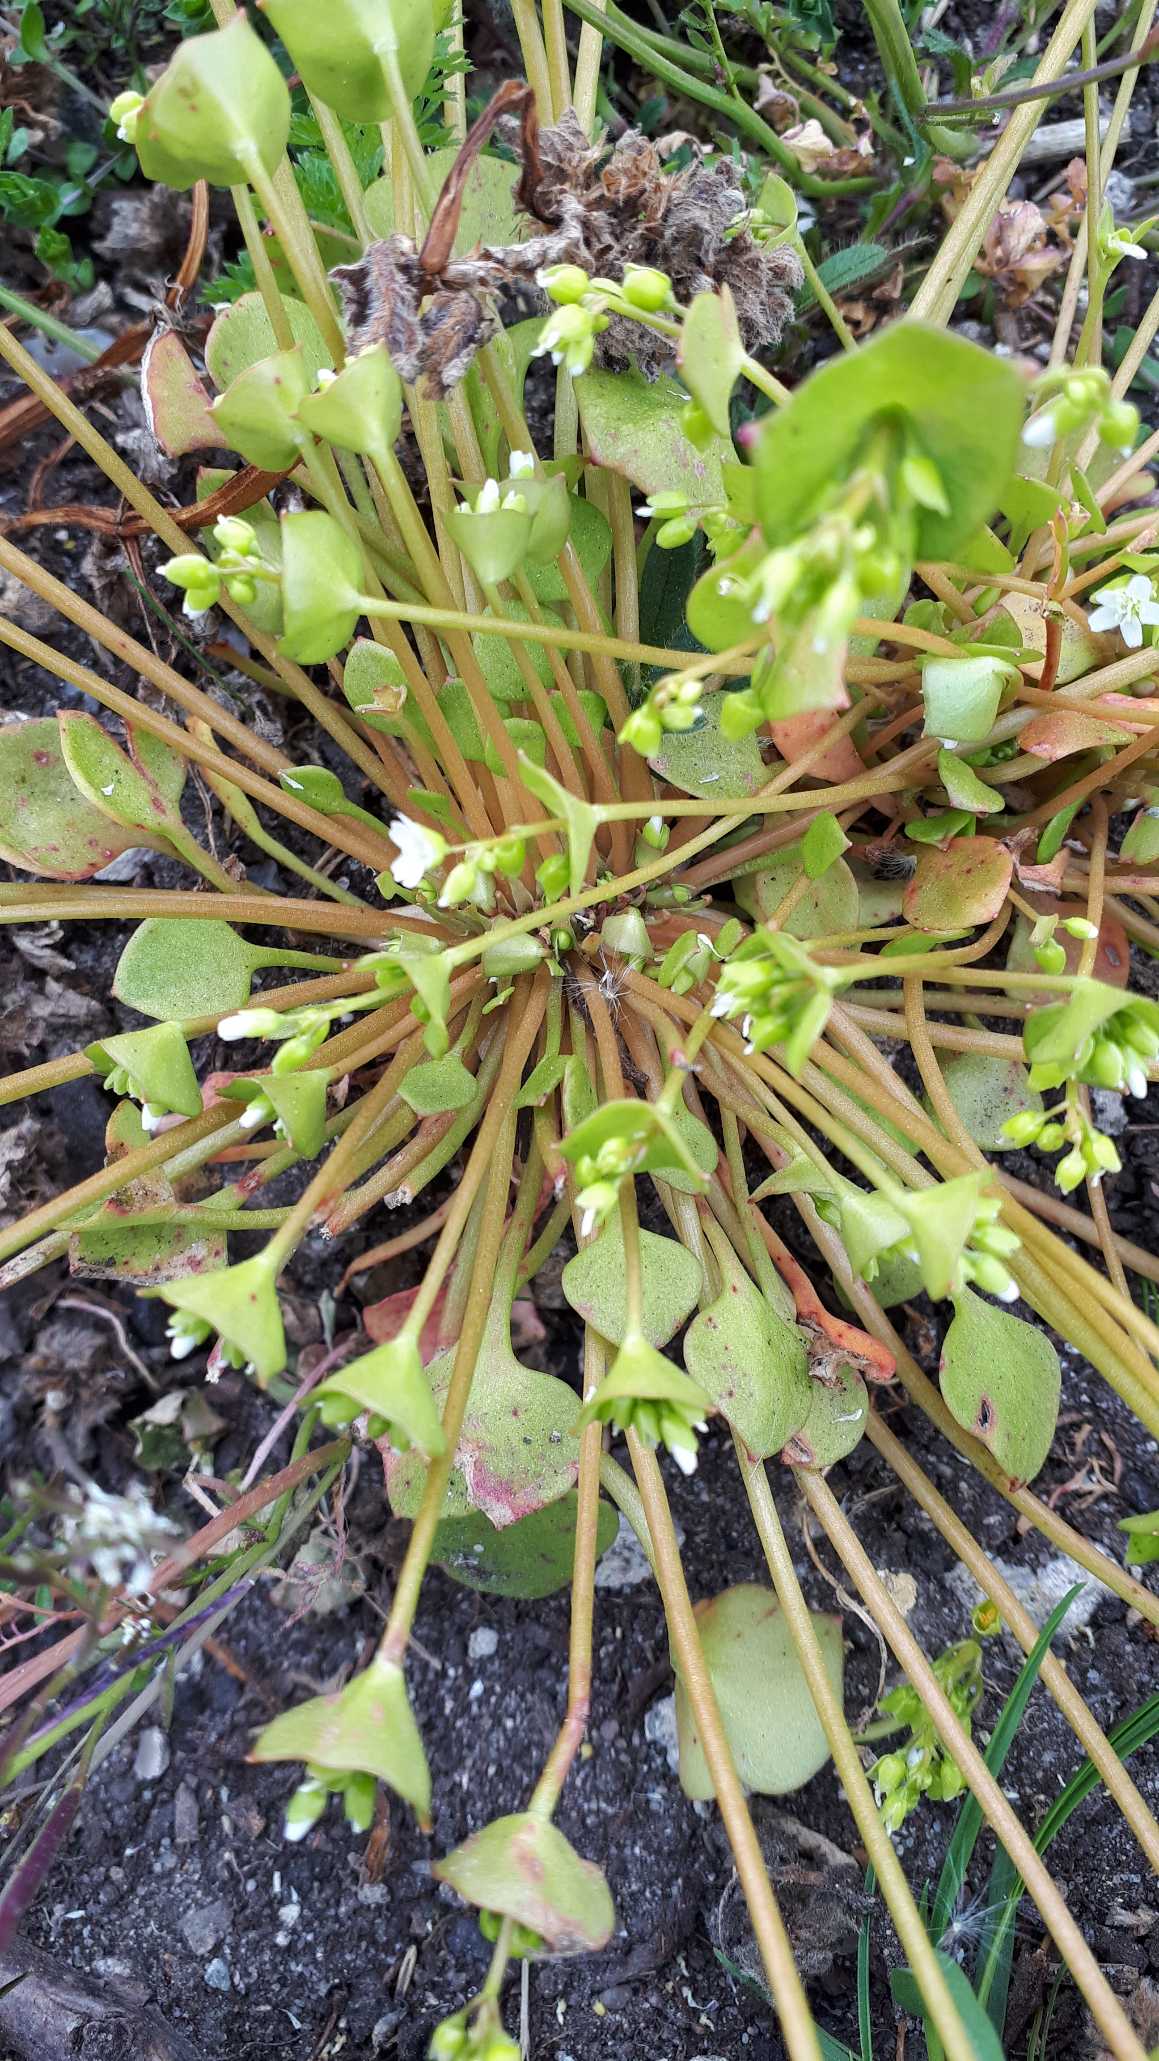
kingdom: Plantae
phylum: Tracheophyta
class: Magnoliopsida
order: Caryophyllales
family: Montiaceae
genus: Claytonia
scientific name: Claytonia perfoliata
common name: Spiselig vinterportulak
